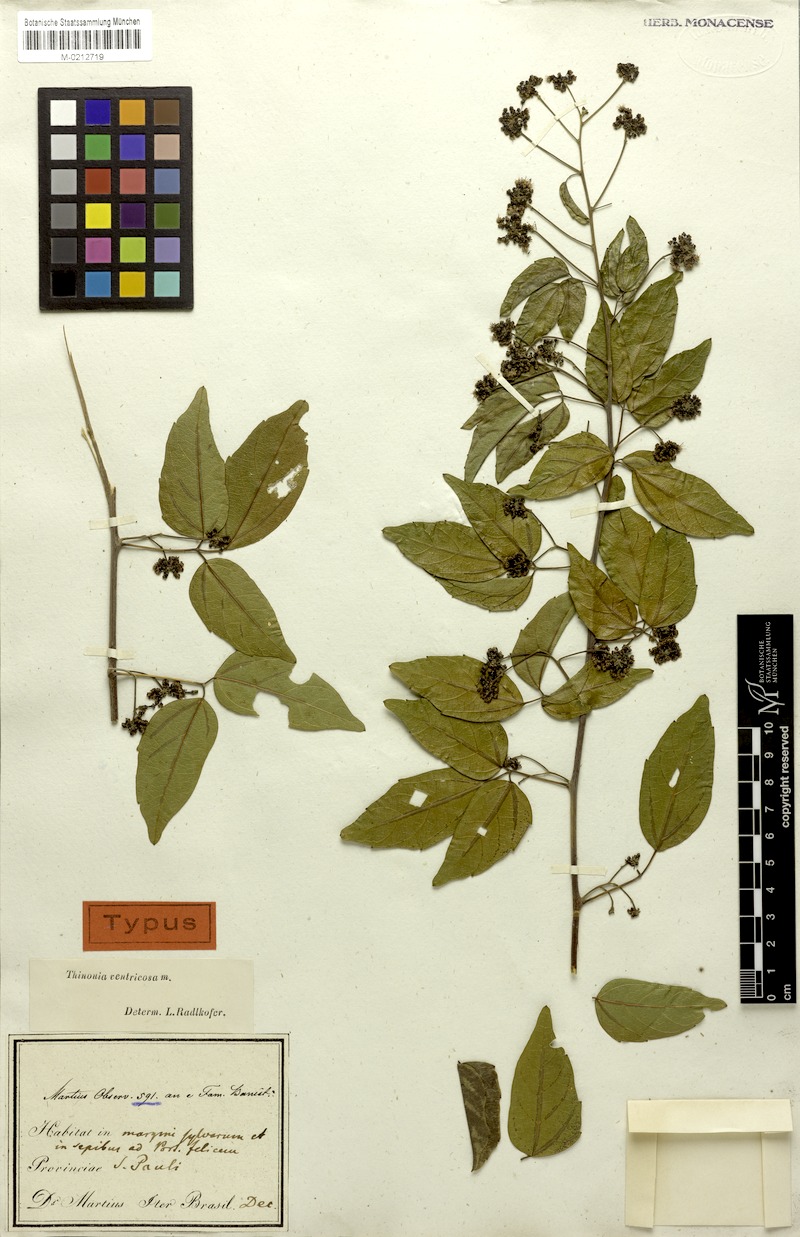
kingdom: Plantae
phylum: Tracheophyta
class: Magnoliopsida
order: Sapindales
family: Sapindaceae
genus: Thinouia
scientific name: Thinouia ventricosa
